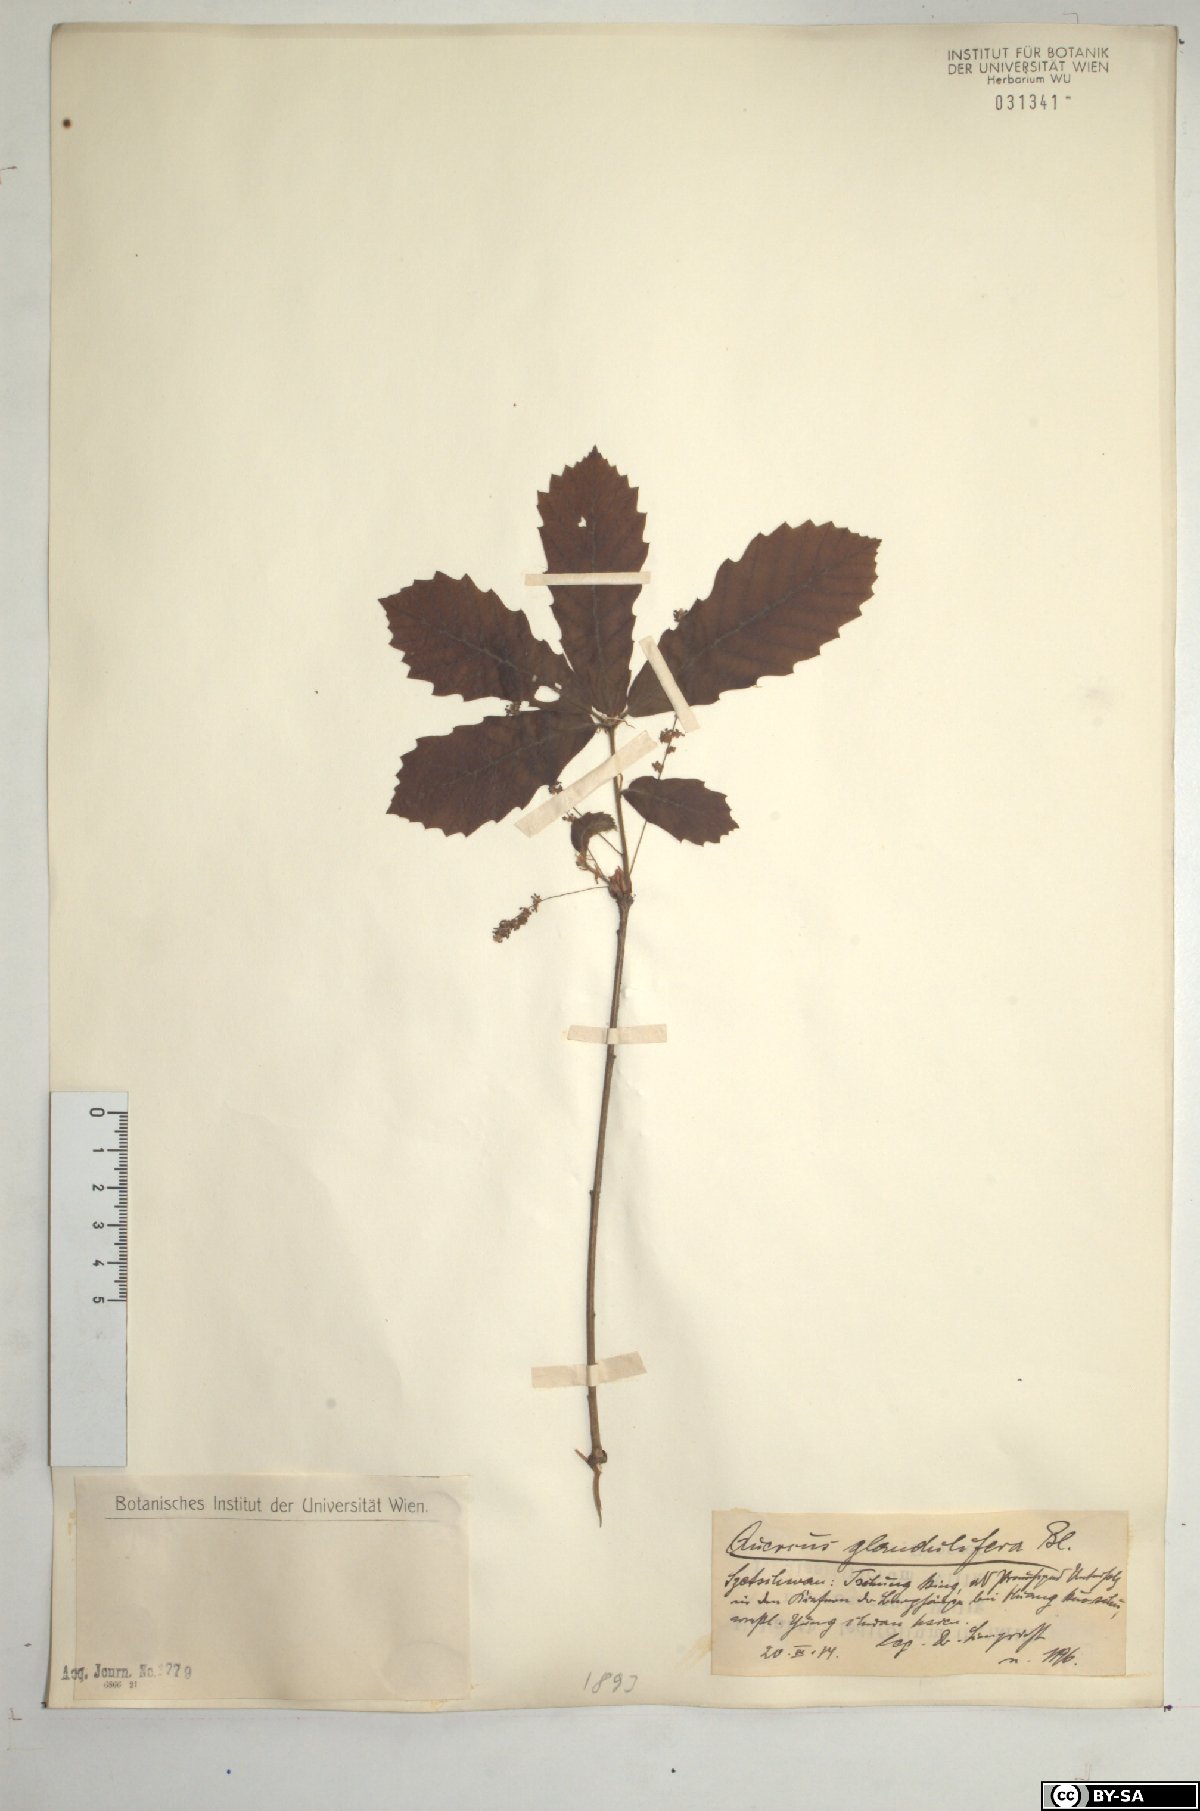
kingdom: Plantae
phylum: Tracheophyta
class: Magnoliopsida
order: Fagales
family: Fagaceae
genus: Quercus
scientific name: Quercus serrata
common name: Bao li
